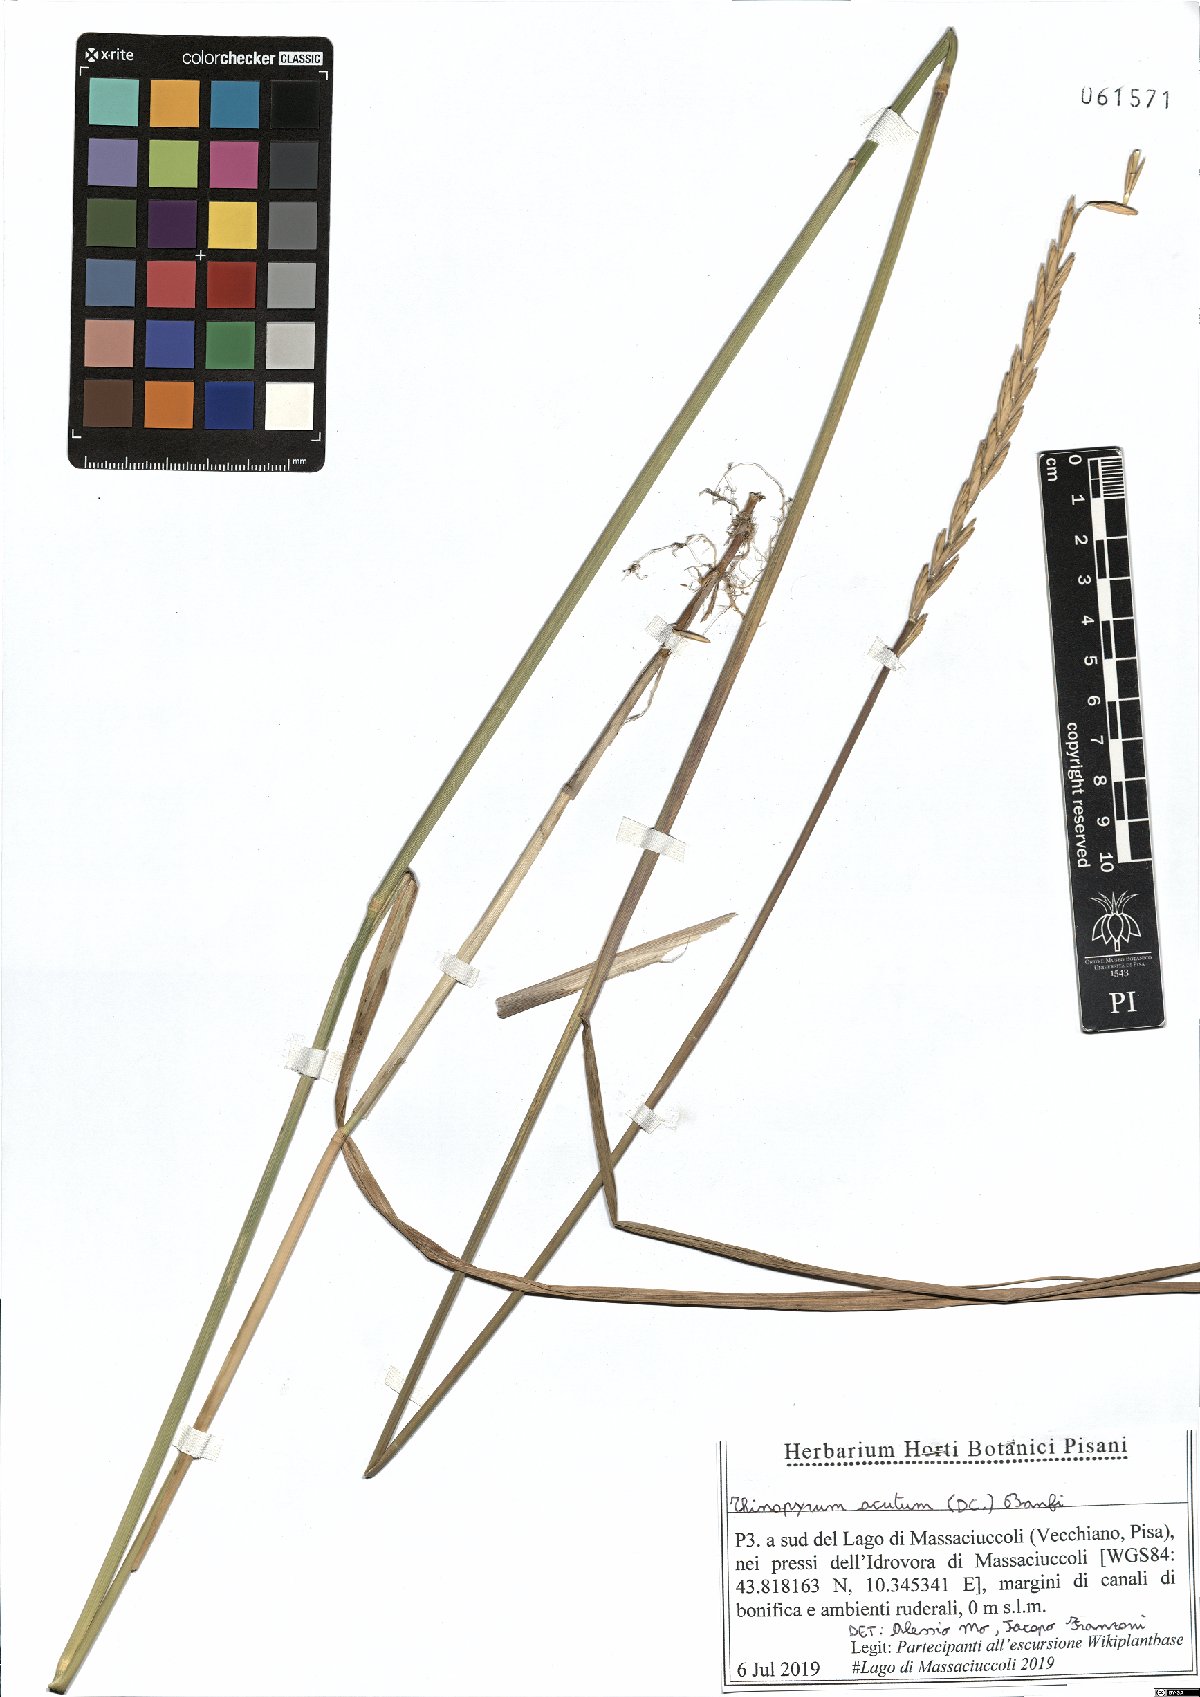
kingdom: Plantae
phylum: Tracheophyta
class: Liliopsida
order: Poales
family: Poaceae
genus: Thinopyrum
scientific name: Thinopyrum acutum
